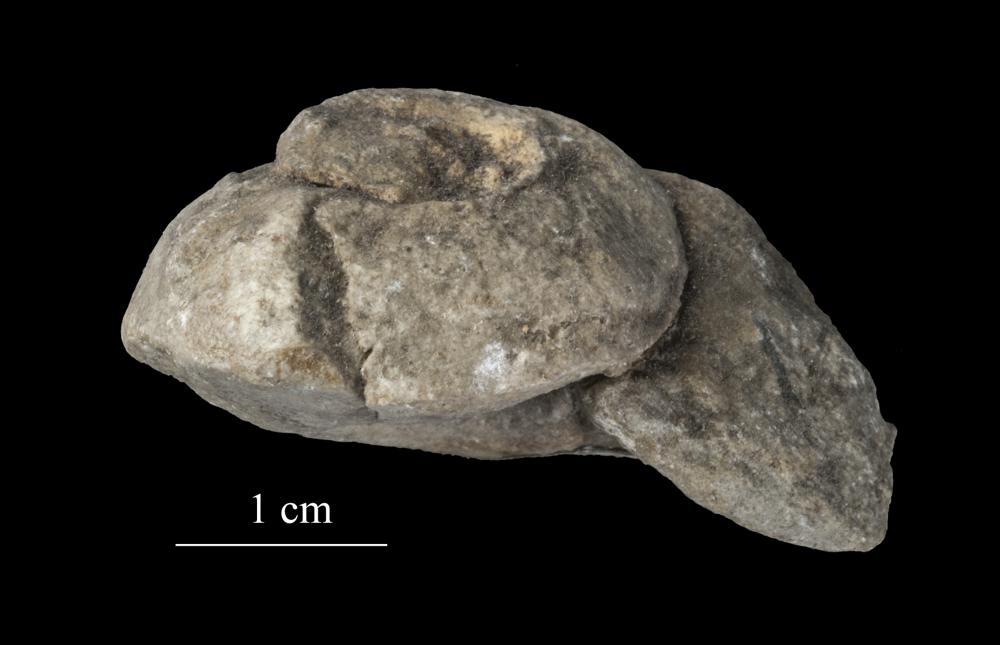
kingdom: Animalia
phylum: Mollusca
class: Gastropoda
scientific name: Gastropoda
